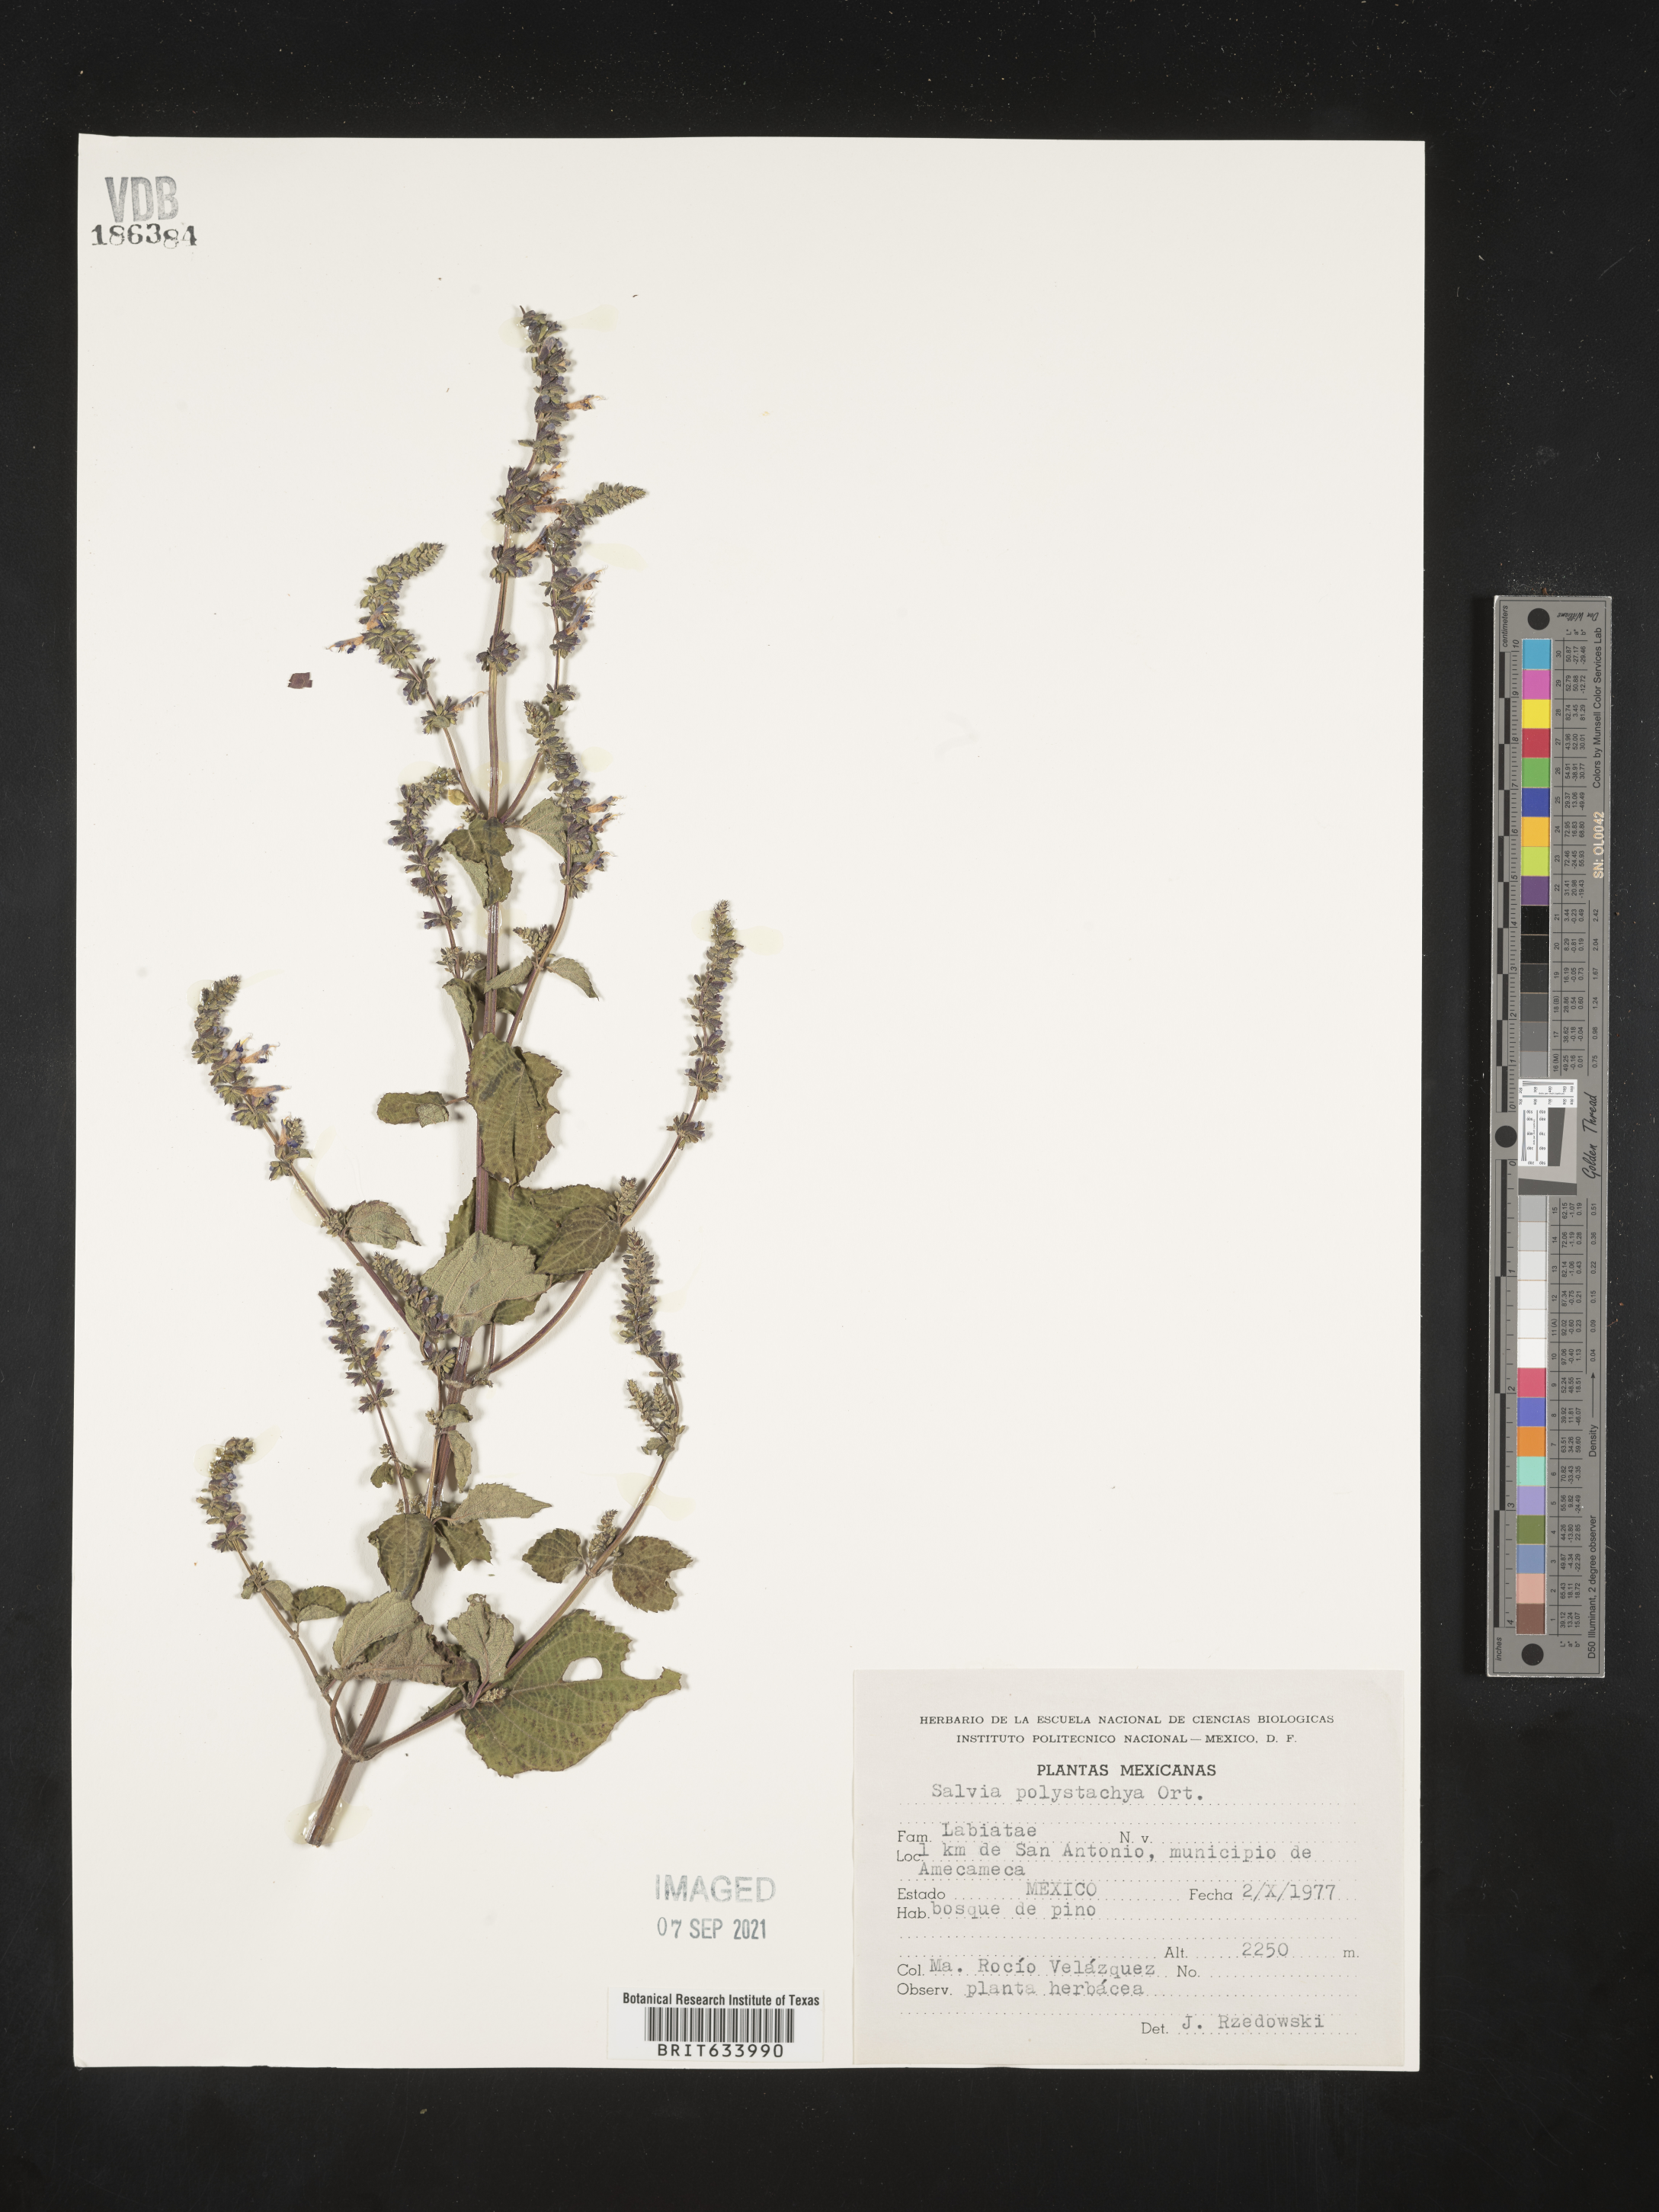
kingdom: Plantae
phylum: Tracheophyta
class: Magnoliopsida
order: Lamiales
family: Lamiaceae
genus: Salvia
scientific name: Salvia
